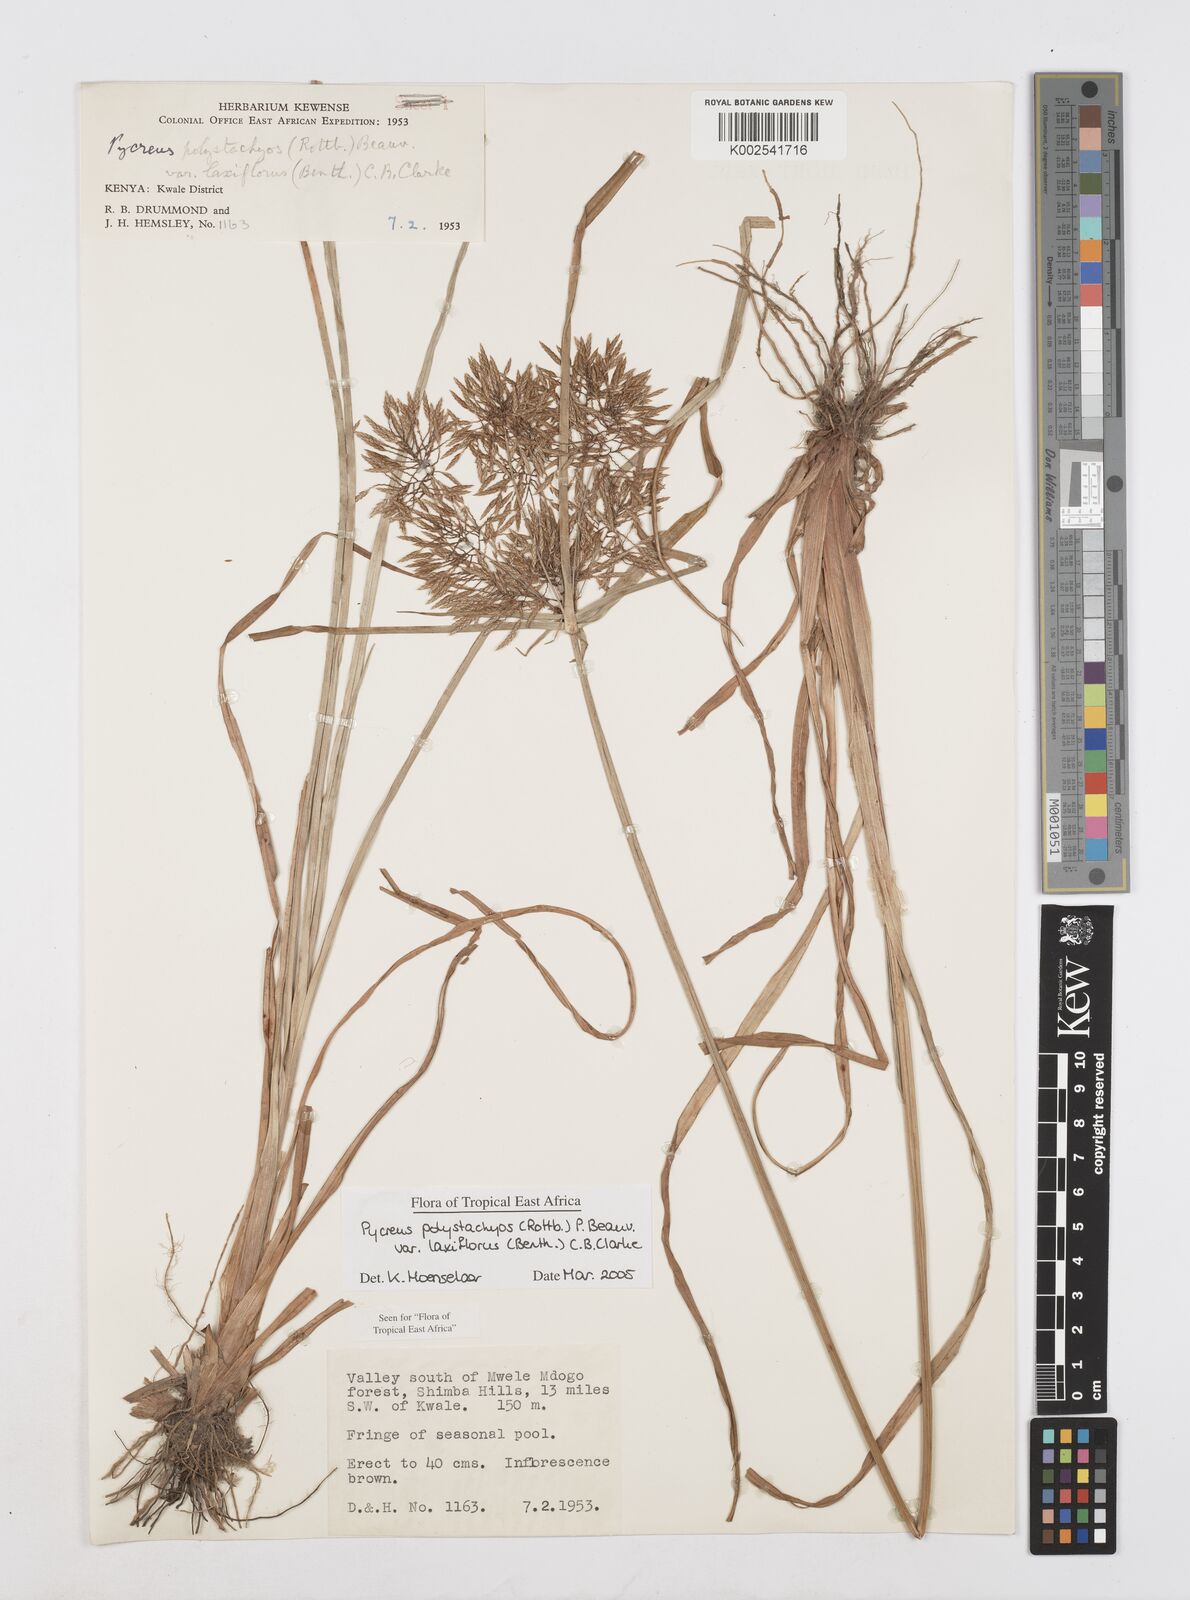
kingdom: Plantae
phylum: Tracheophyta
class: Liliopsida
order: Poales
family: Cyperaceae
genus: Cyperus
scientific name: Cyperus polystachyos
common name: Bunchy flat sedge
